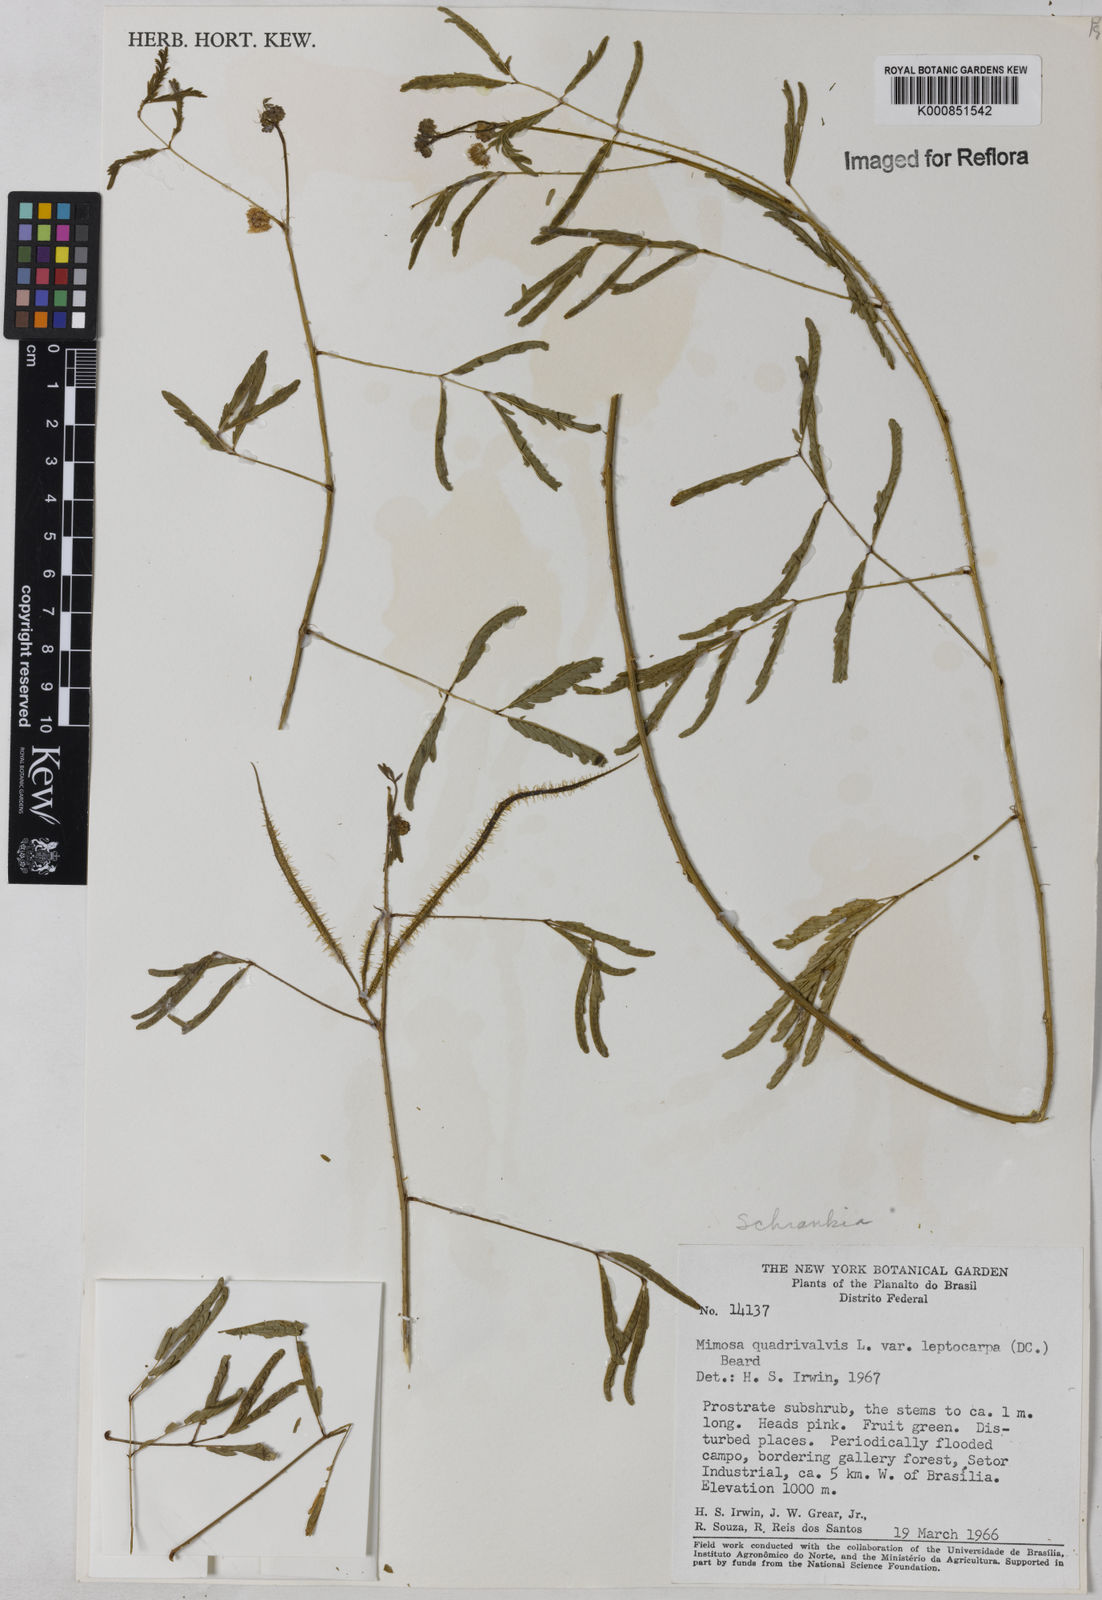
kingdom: Plantae
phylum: Tracheophyta
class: Magnoliopsida
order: Fabales
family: Fabaceae
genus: Mimosa
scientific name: Mimosa candollei
